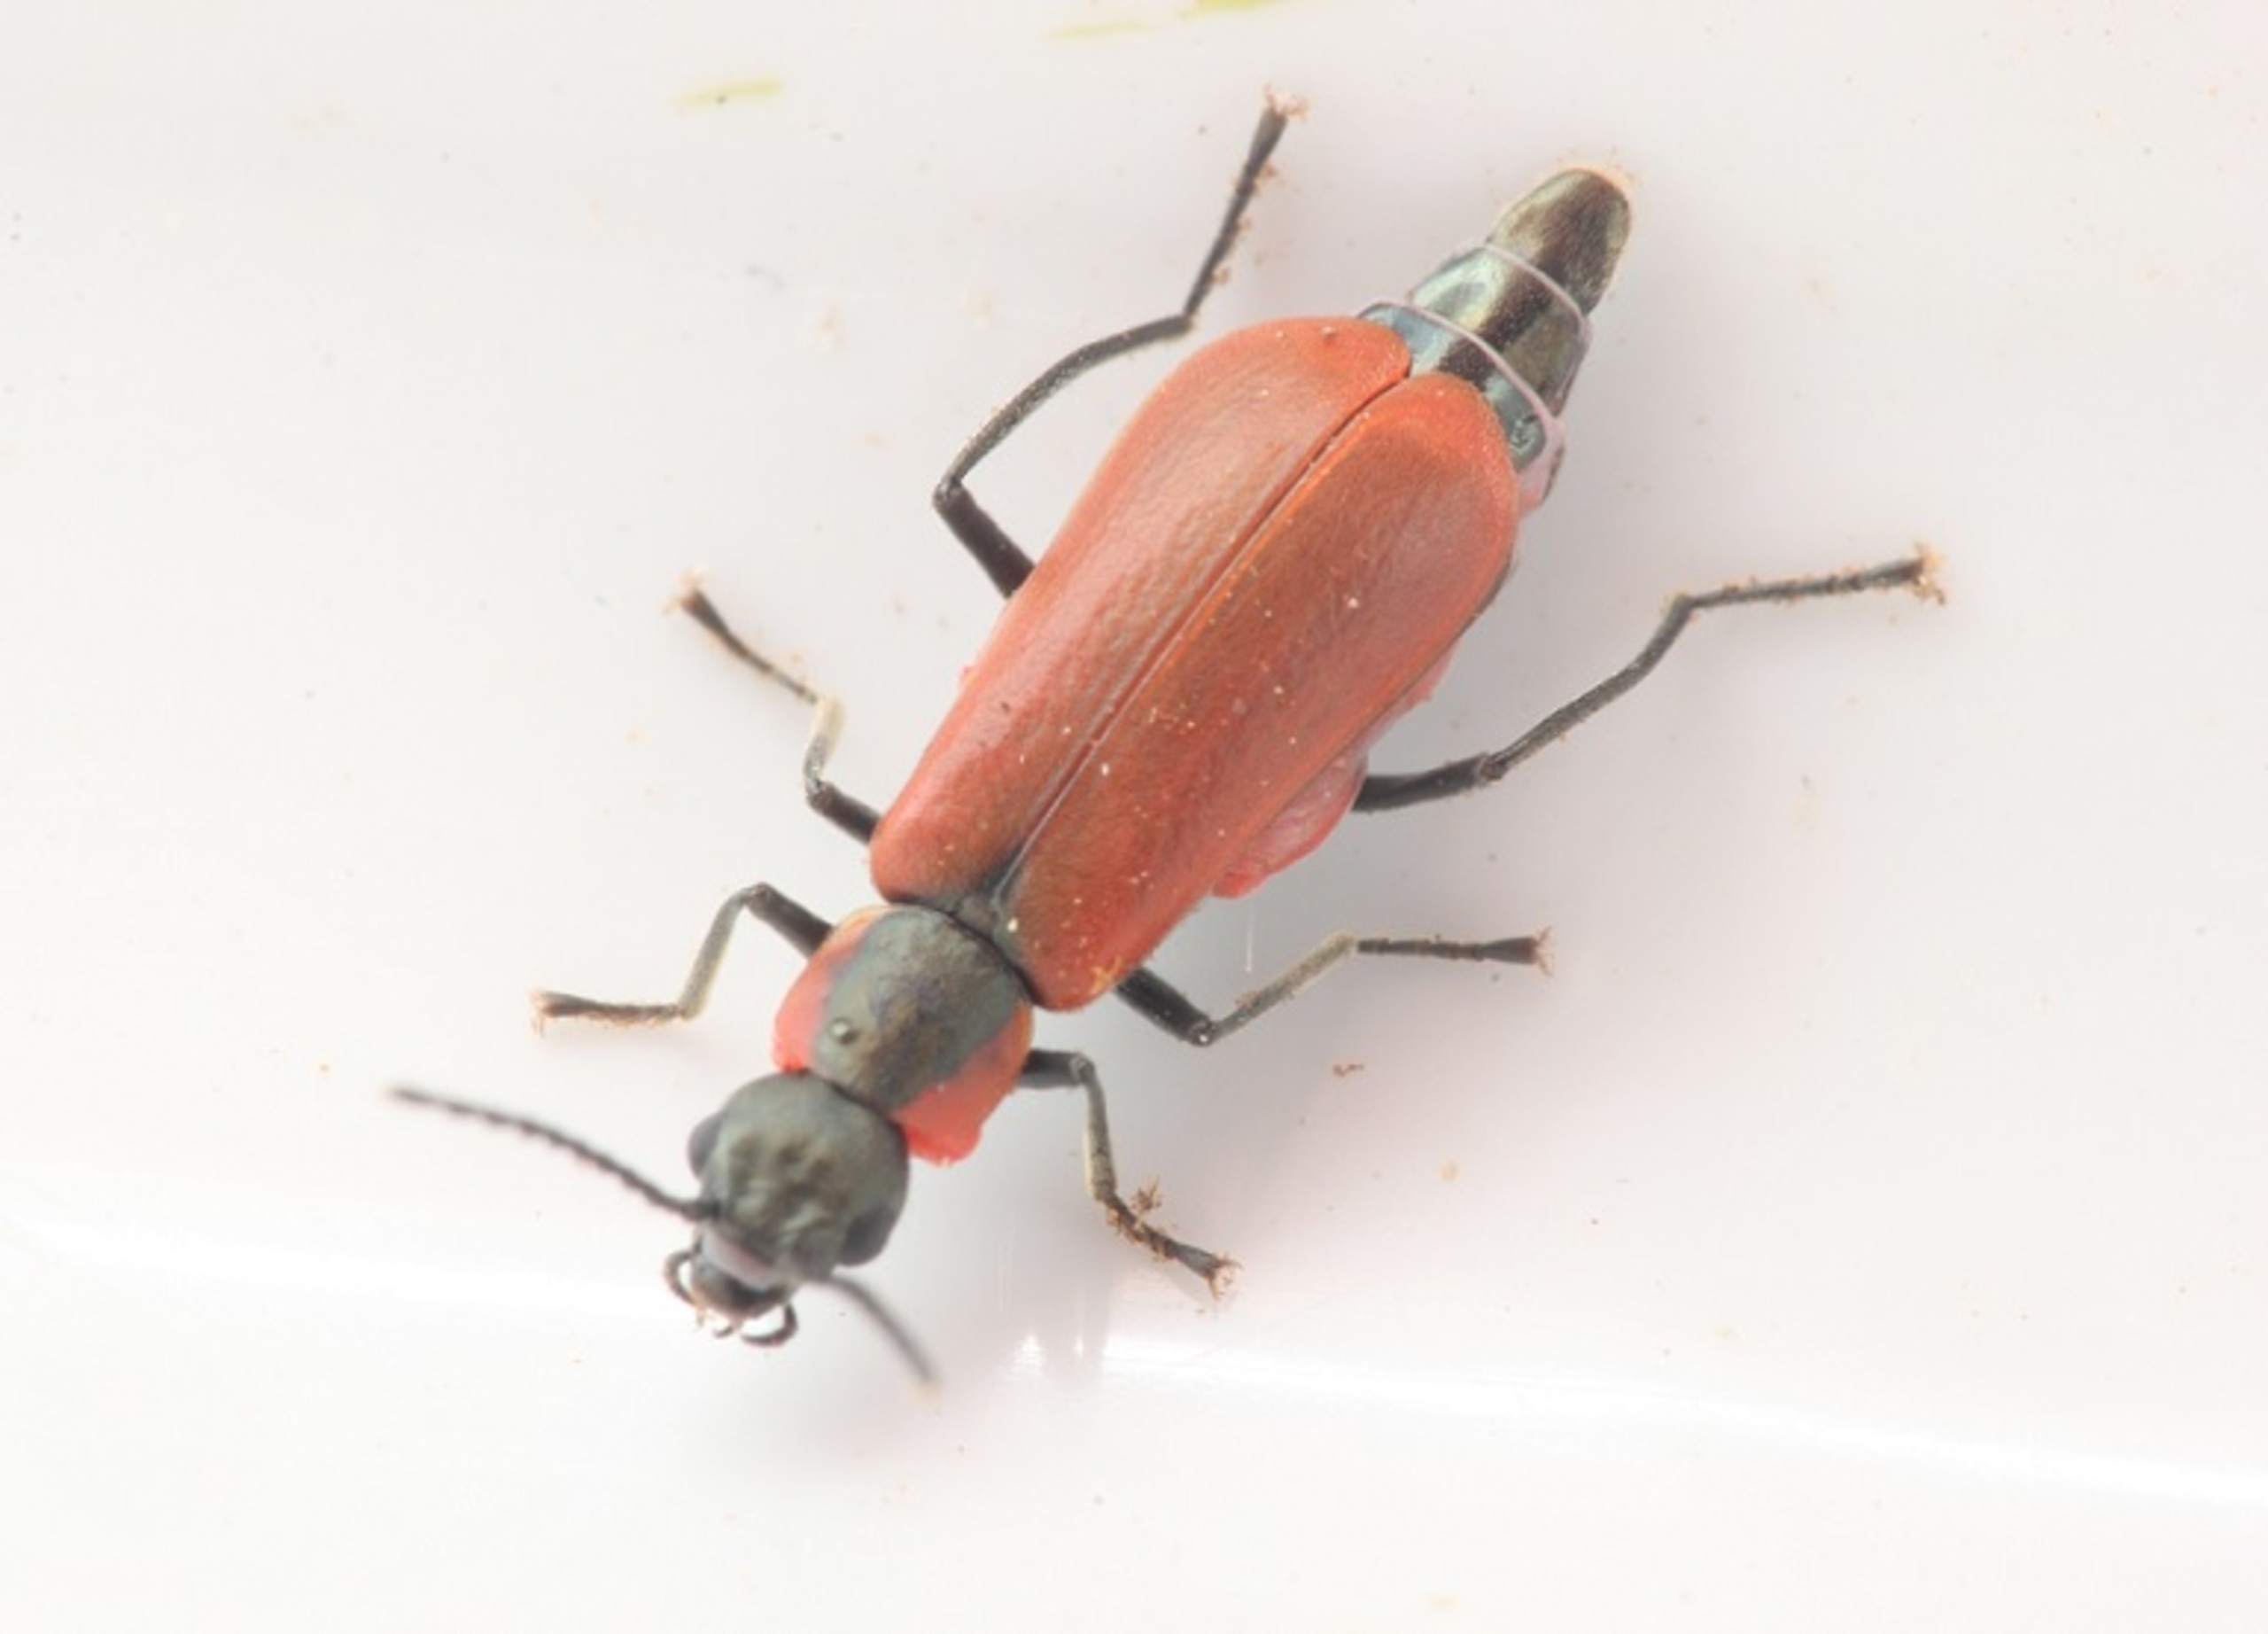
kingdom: Animalia
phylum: Arthropoda
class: Insecta
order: Coleoptera
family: Melyridae
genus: Anthocomus
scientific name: Anthocomus rufus
